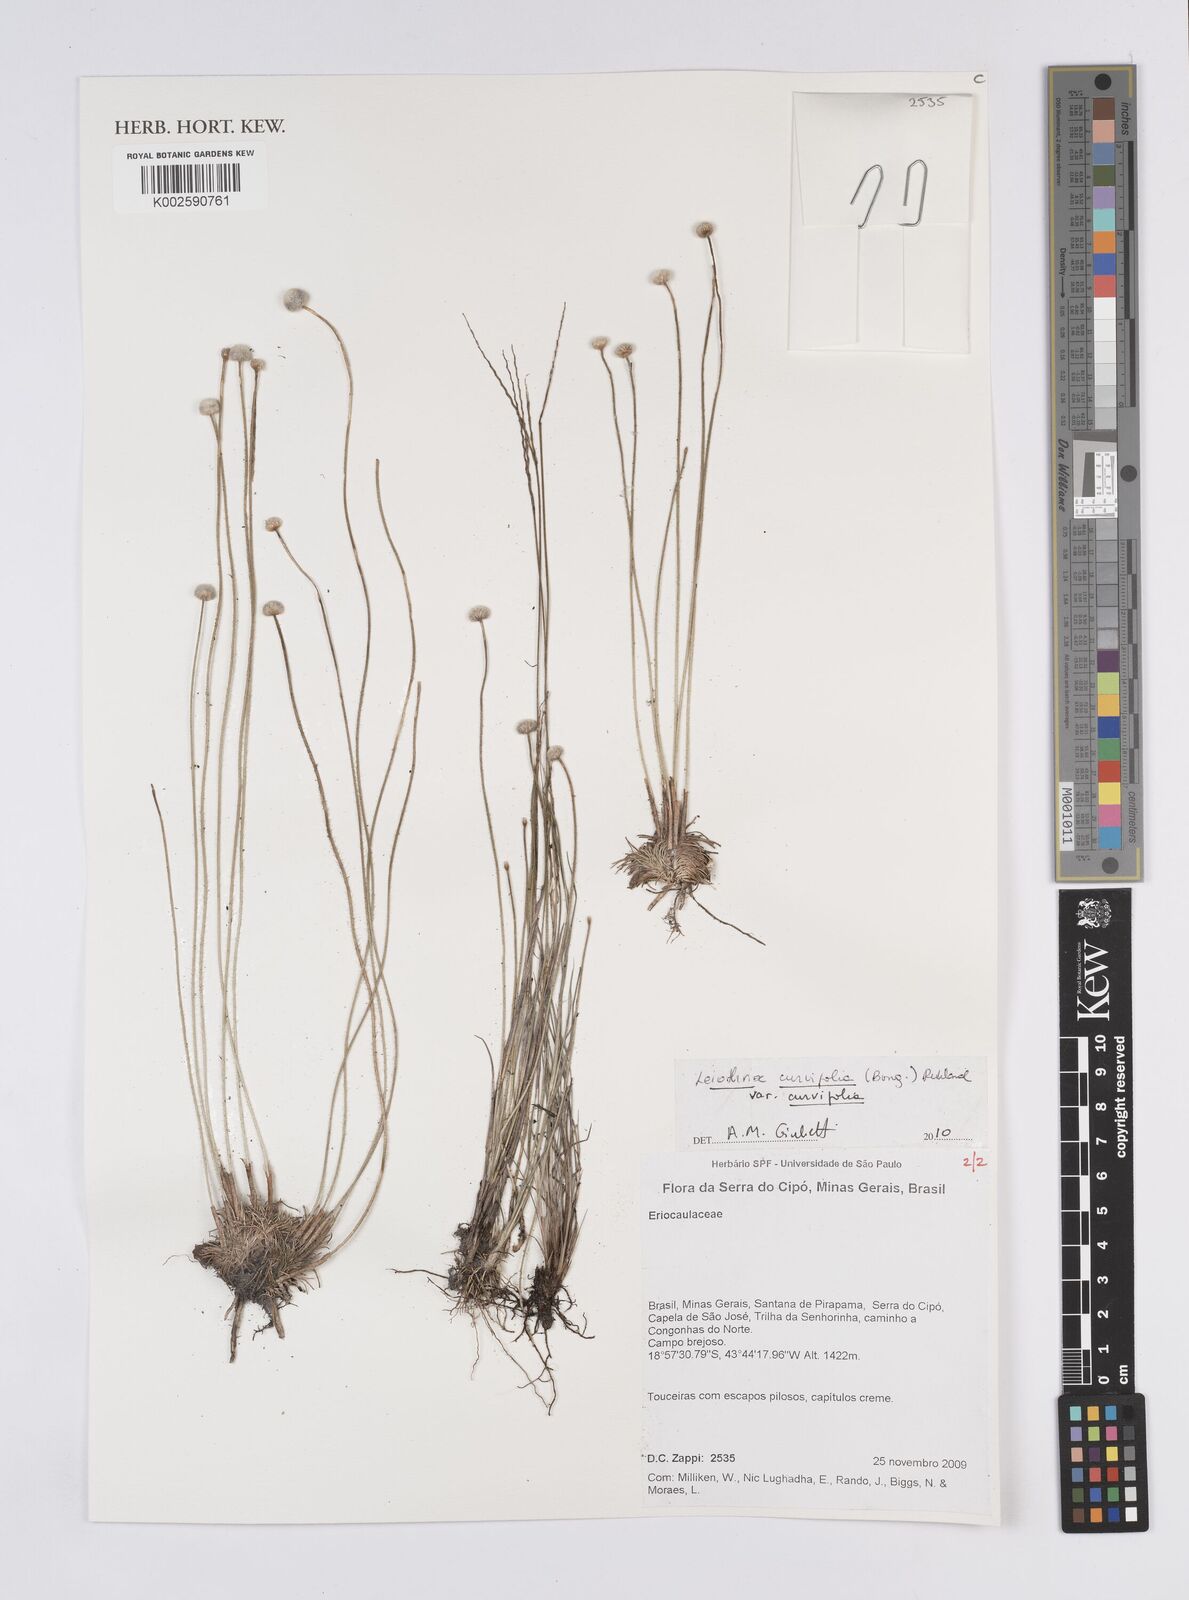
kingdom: Plantae
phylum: Tracheophyta
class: Liliopsida
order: Poales
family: Eriocaulaceae
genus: Leiothrix
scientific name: Leiothrix curvifolia
